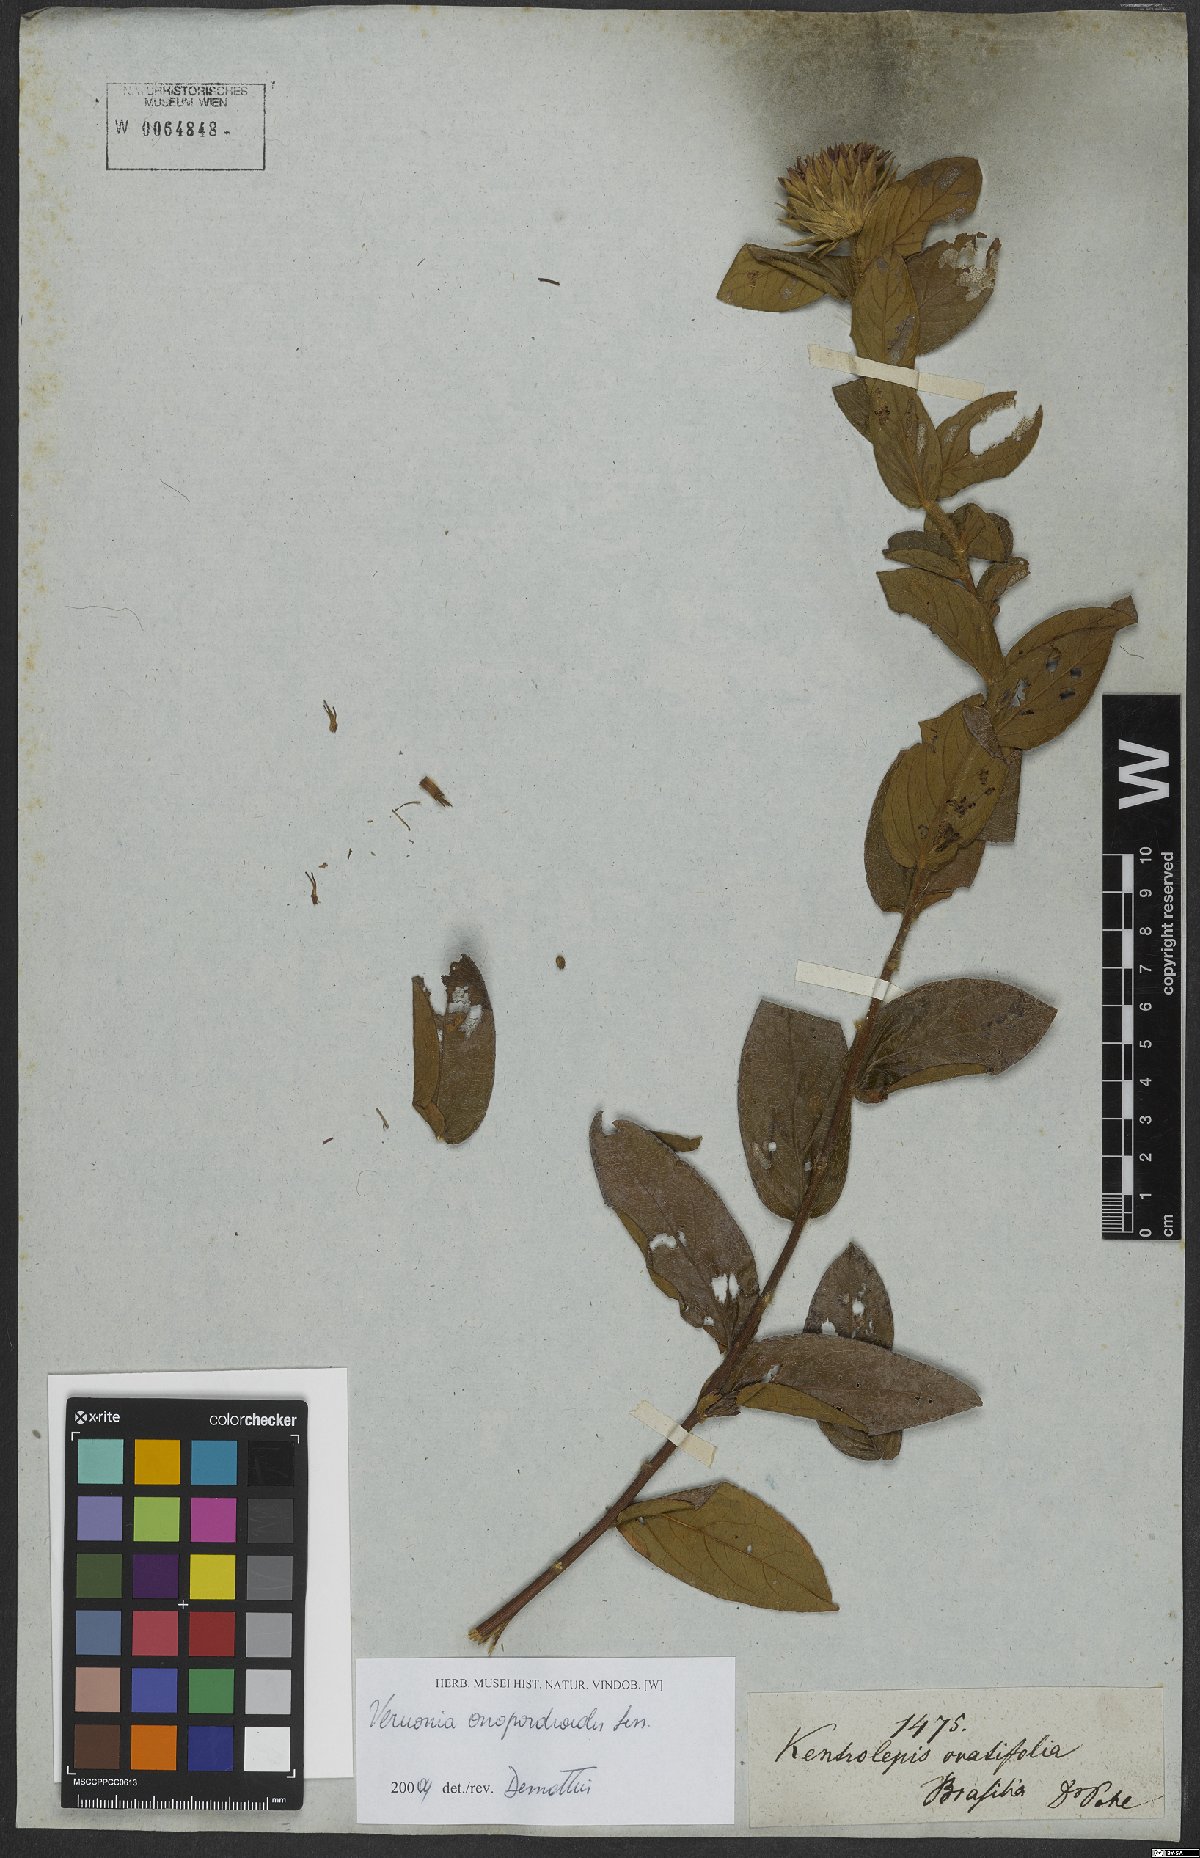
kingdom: Plantae
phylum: Tracheophyta
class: Magnoliopsida
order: Asterales
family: Asteraceae
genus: Lessingianthus
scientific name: Lessingianthus onopordioides
